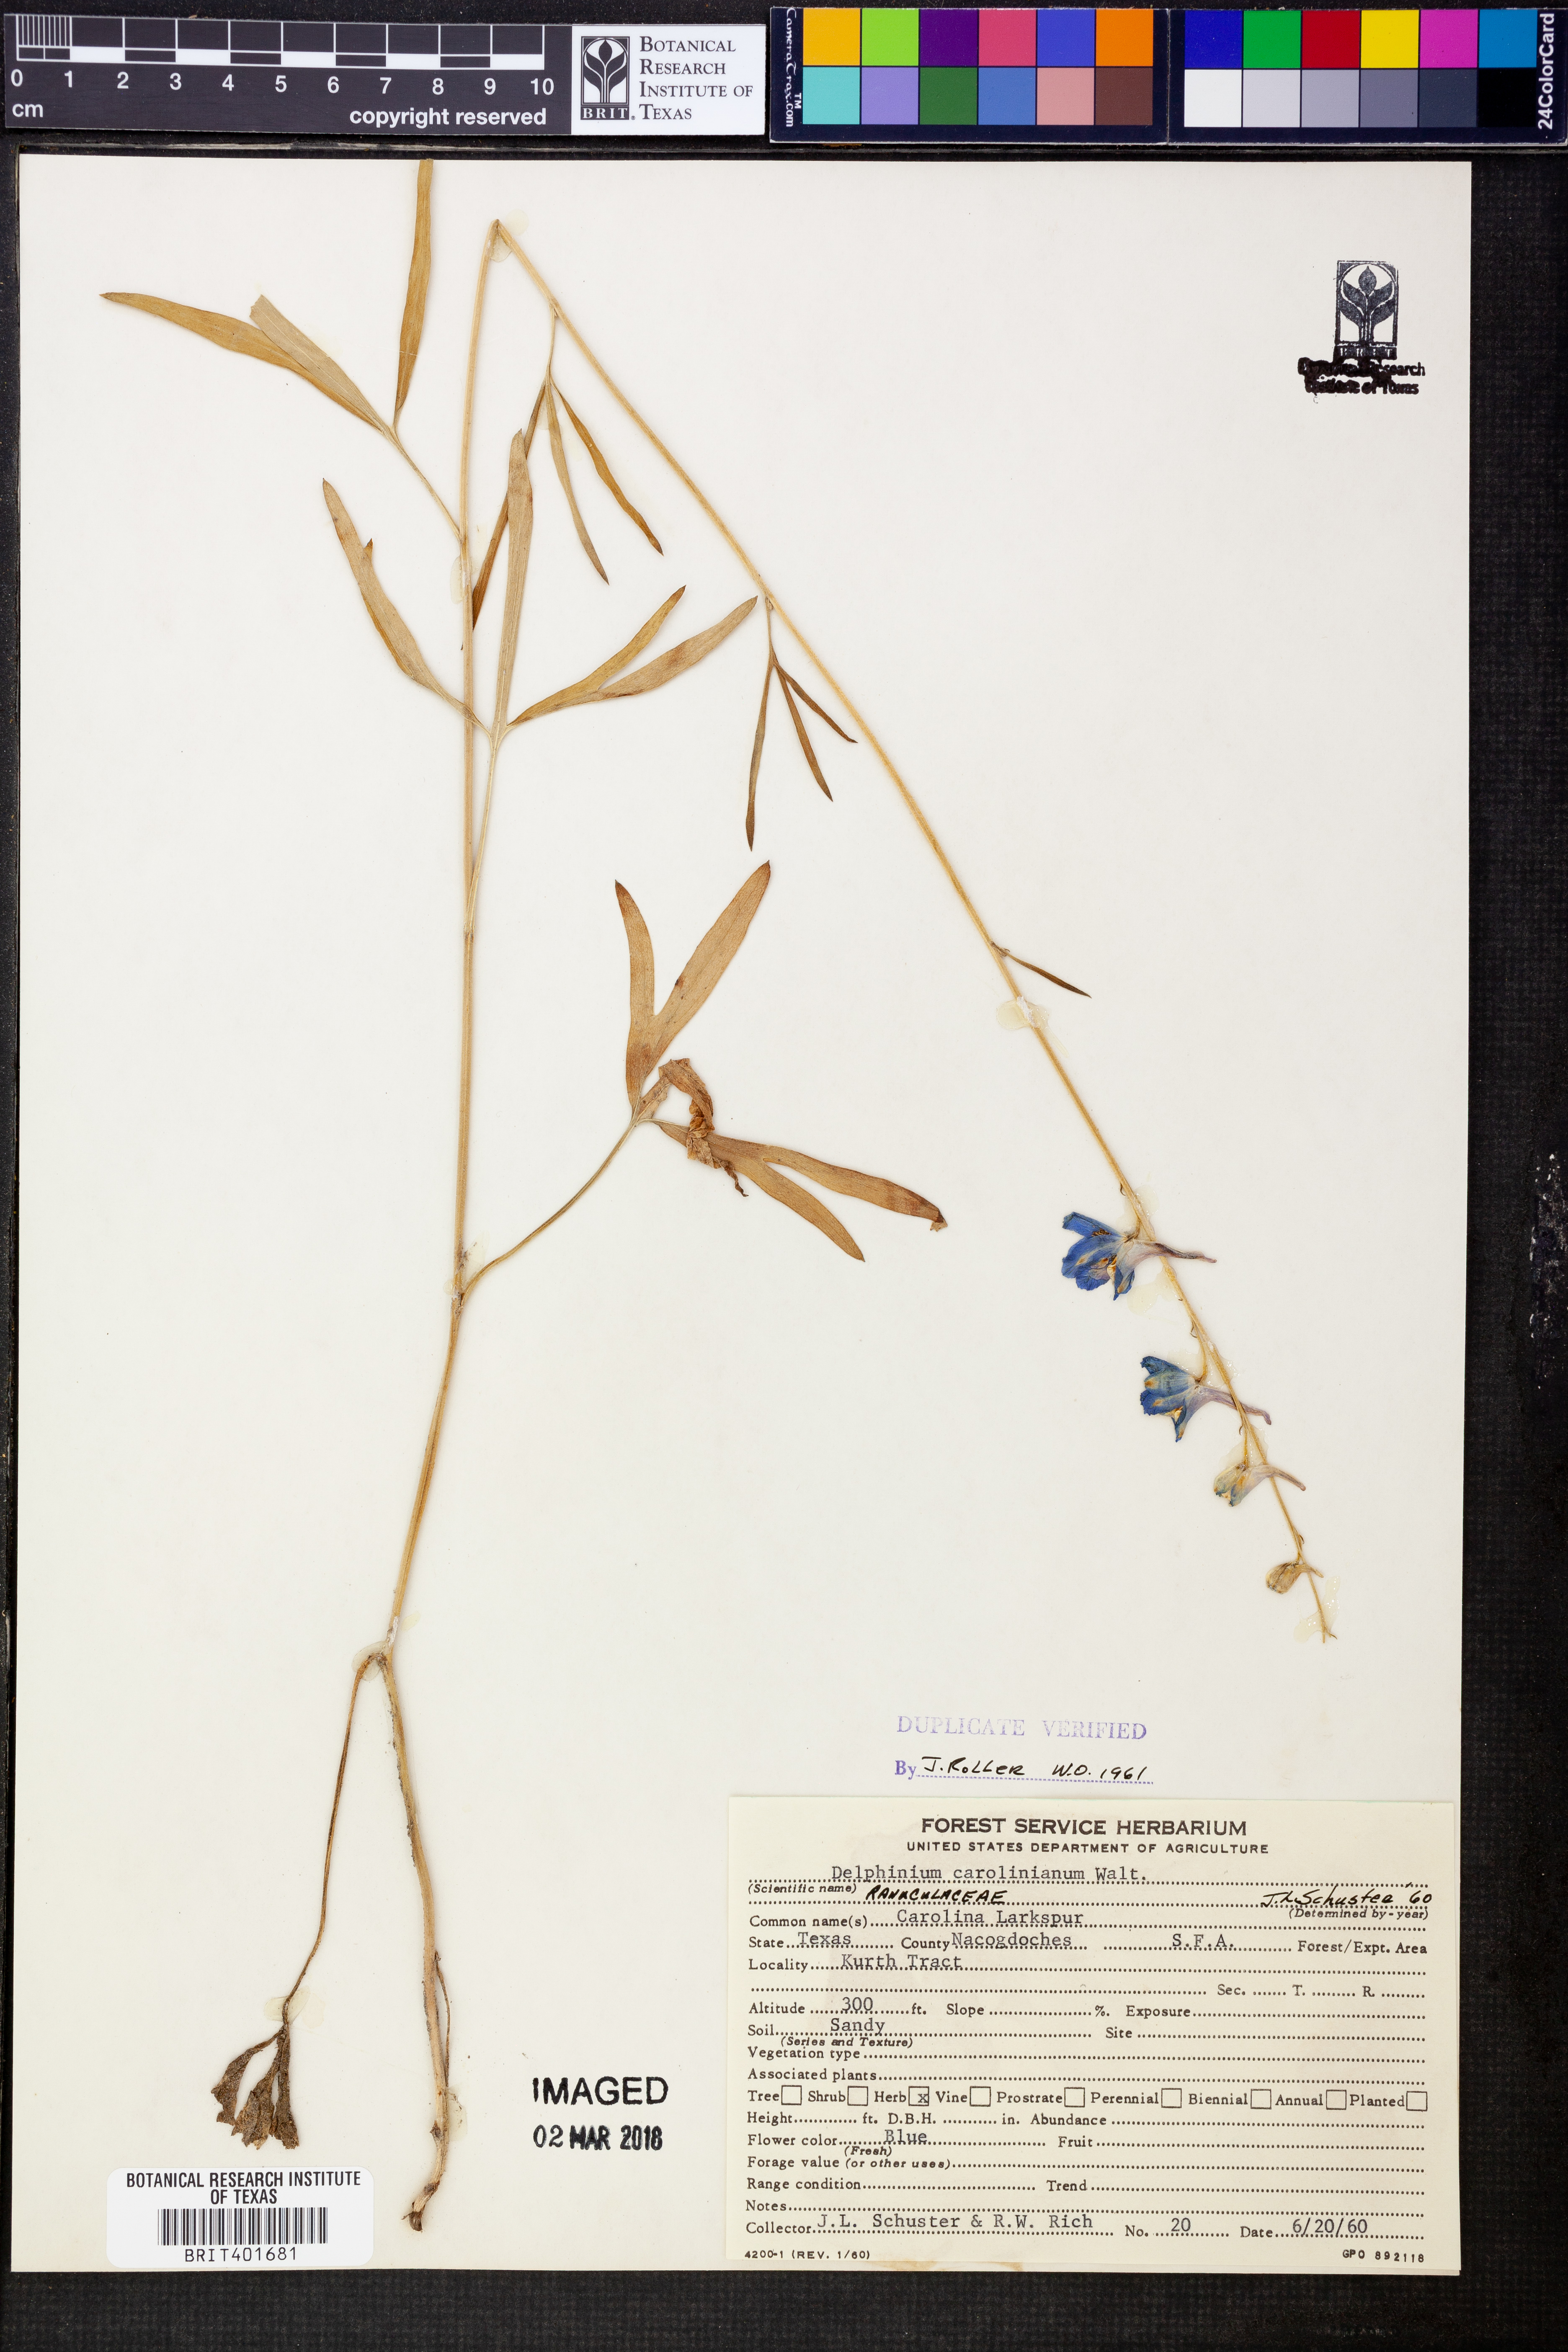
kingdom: Plantae
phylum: Tracheophyta
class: Magnoliopsida
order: Ranunculales
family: Ranunculaceae
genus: Delphinium
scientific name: Delphinium carolinianum
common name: Carolina larkspur
